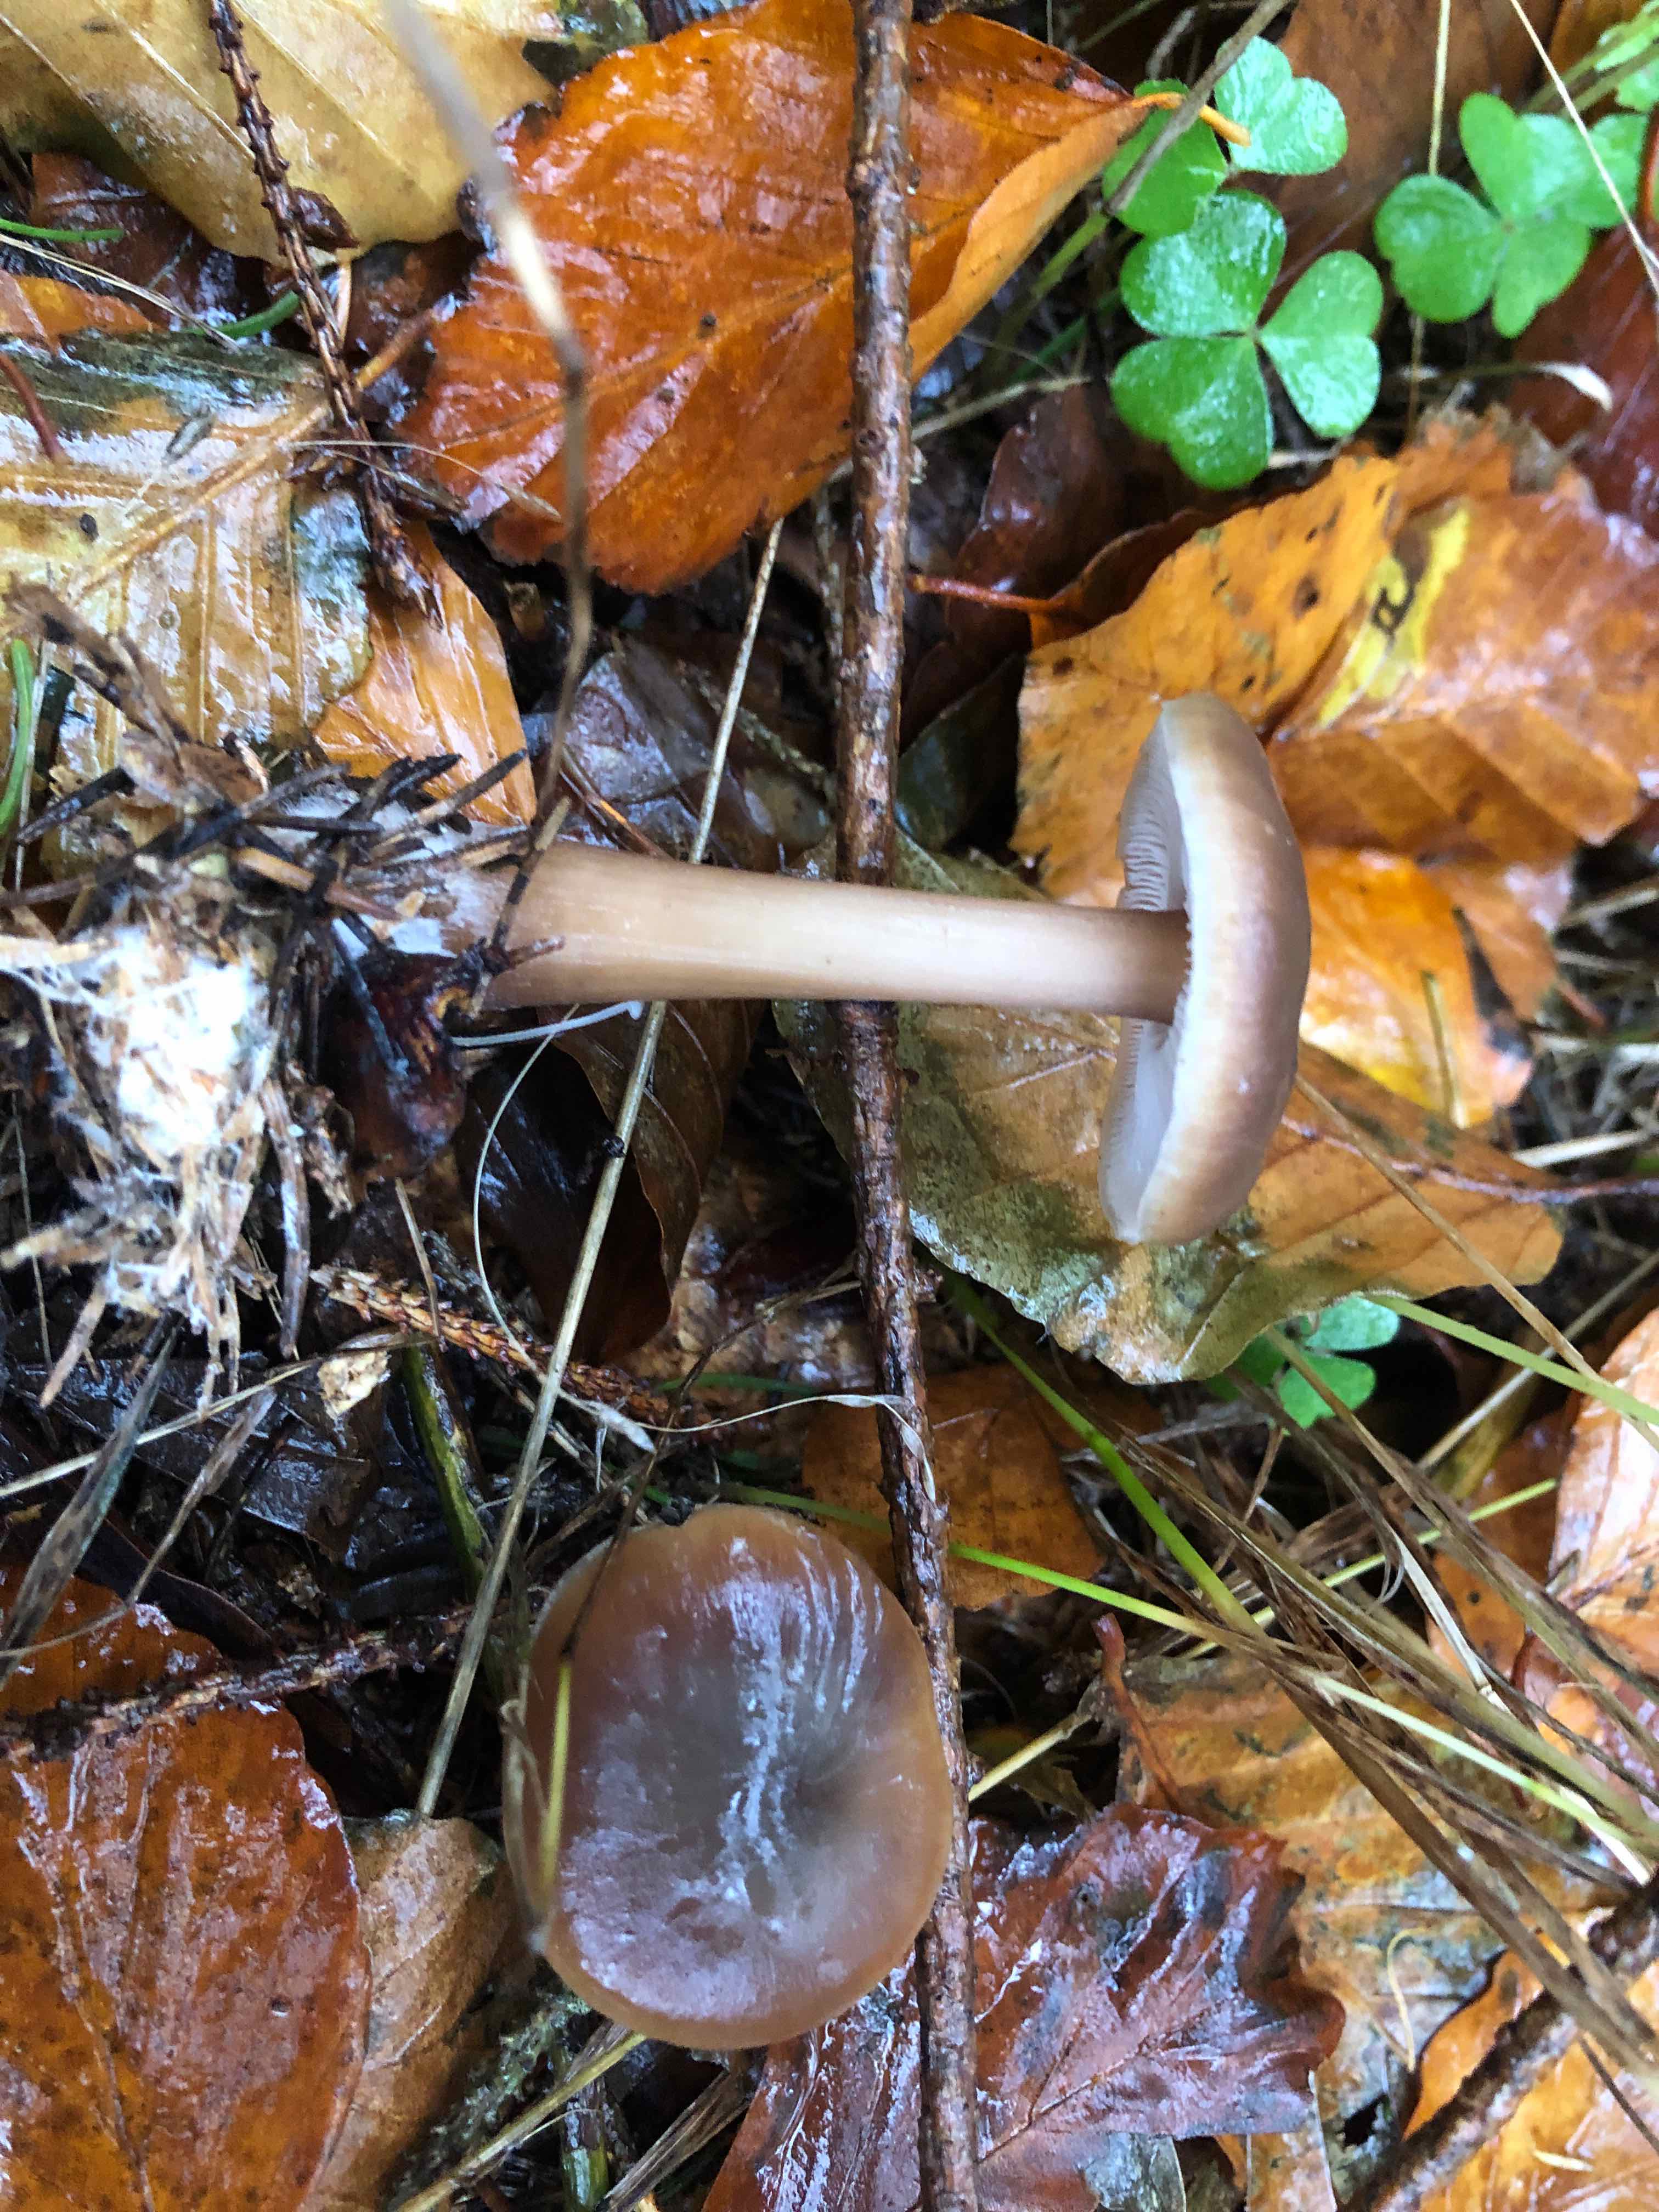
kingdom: Fungi
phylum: Basidiomycota
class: Agaricomycetes
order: Agaricales
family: Omphalotaceae
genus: Rhodocollybia
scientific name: Rhodocollybia asema
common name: horngrå fladhat
